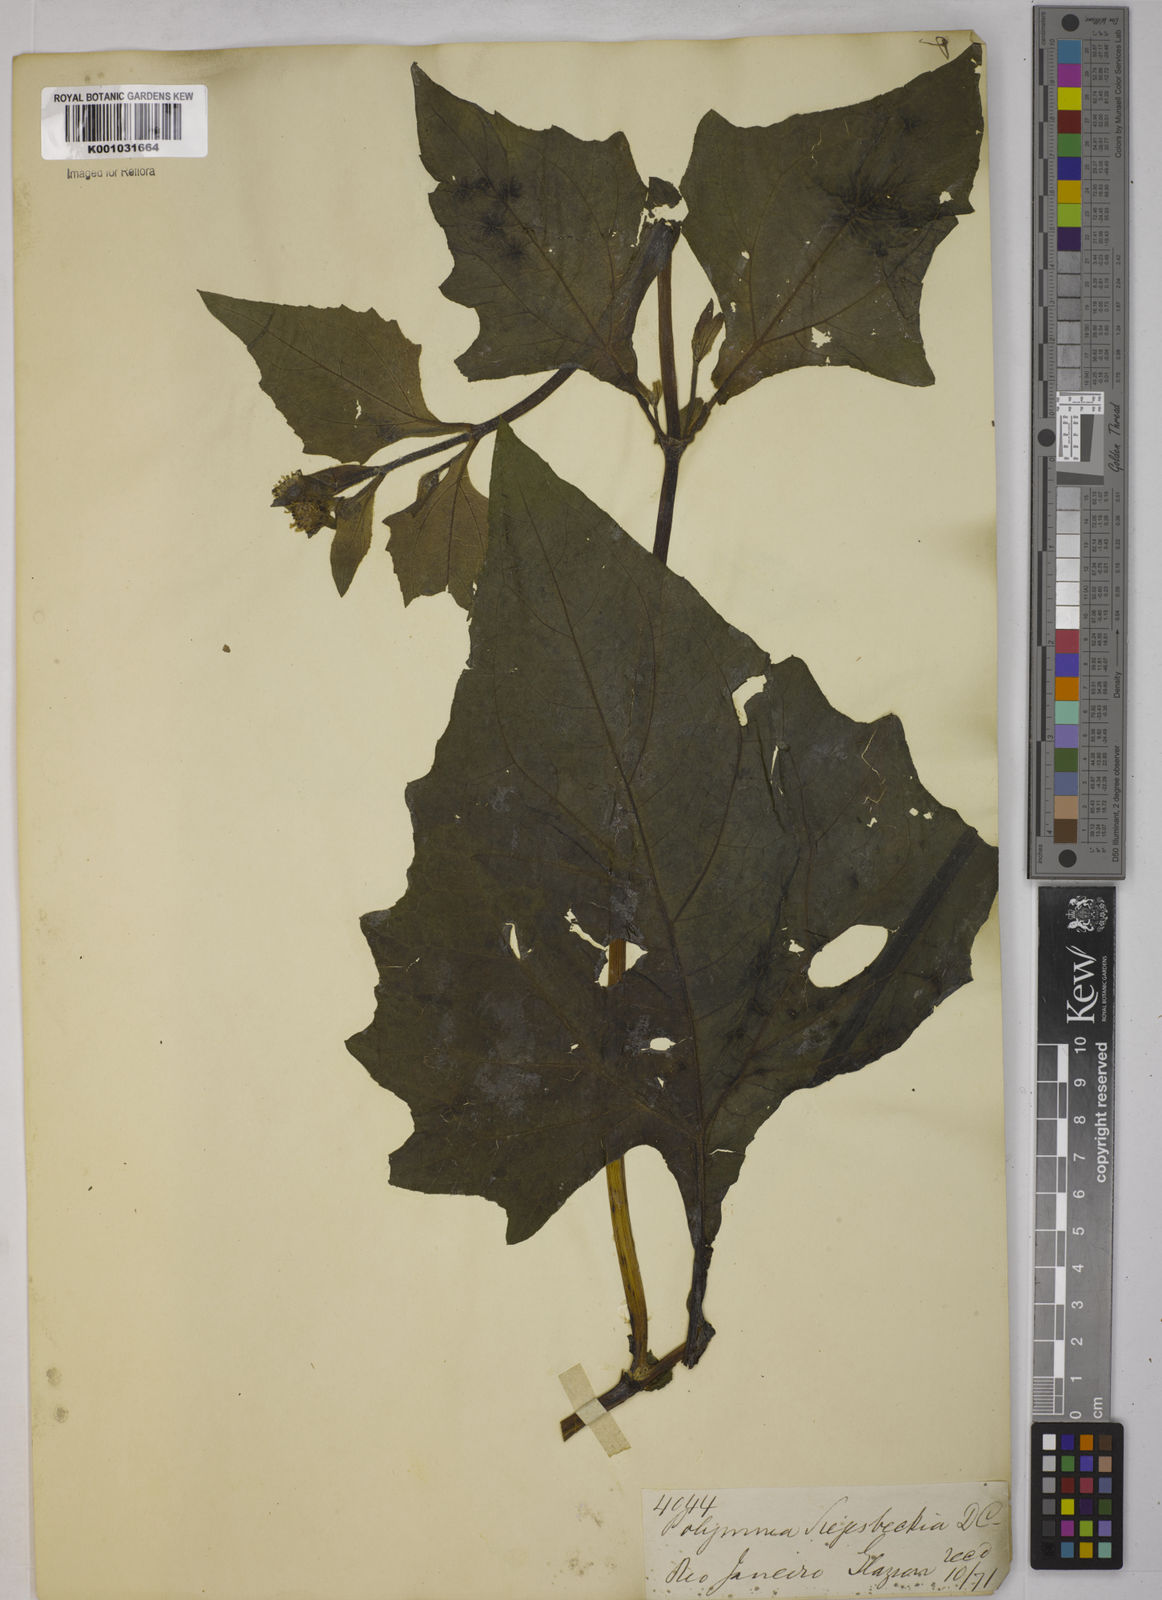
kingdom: Plantae
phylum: Tracheophyta
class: Magnoliopsida
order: Asterales
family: Asteraceae
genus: Smallanthus
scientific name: Smallanthus siegesbeckius
